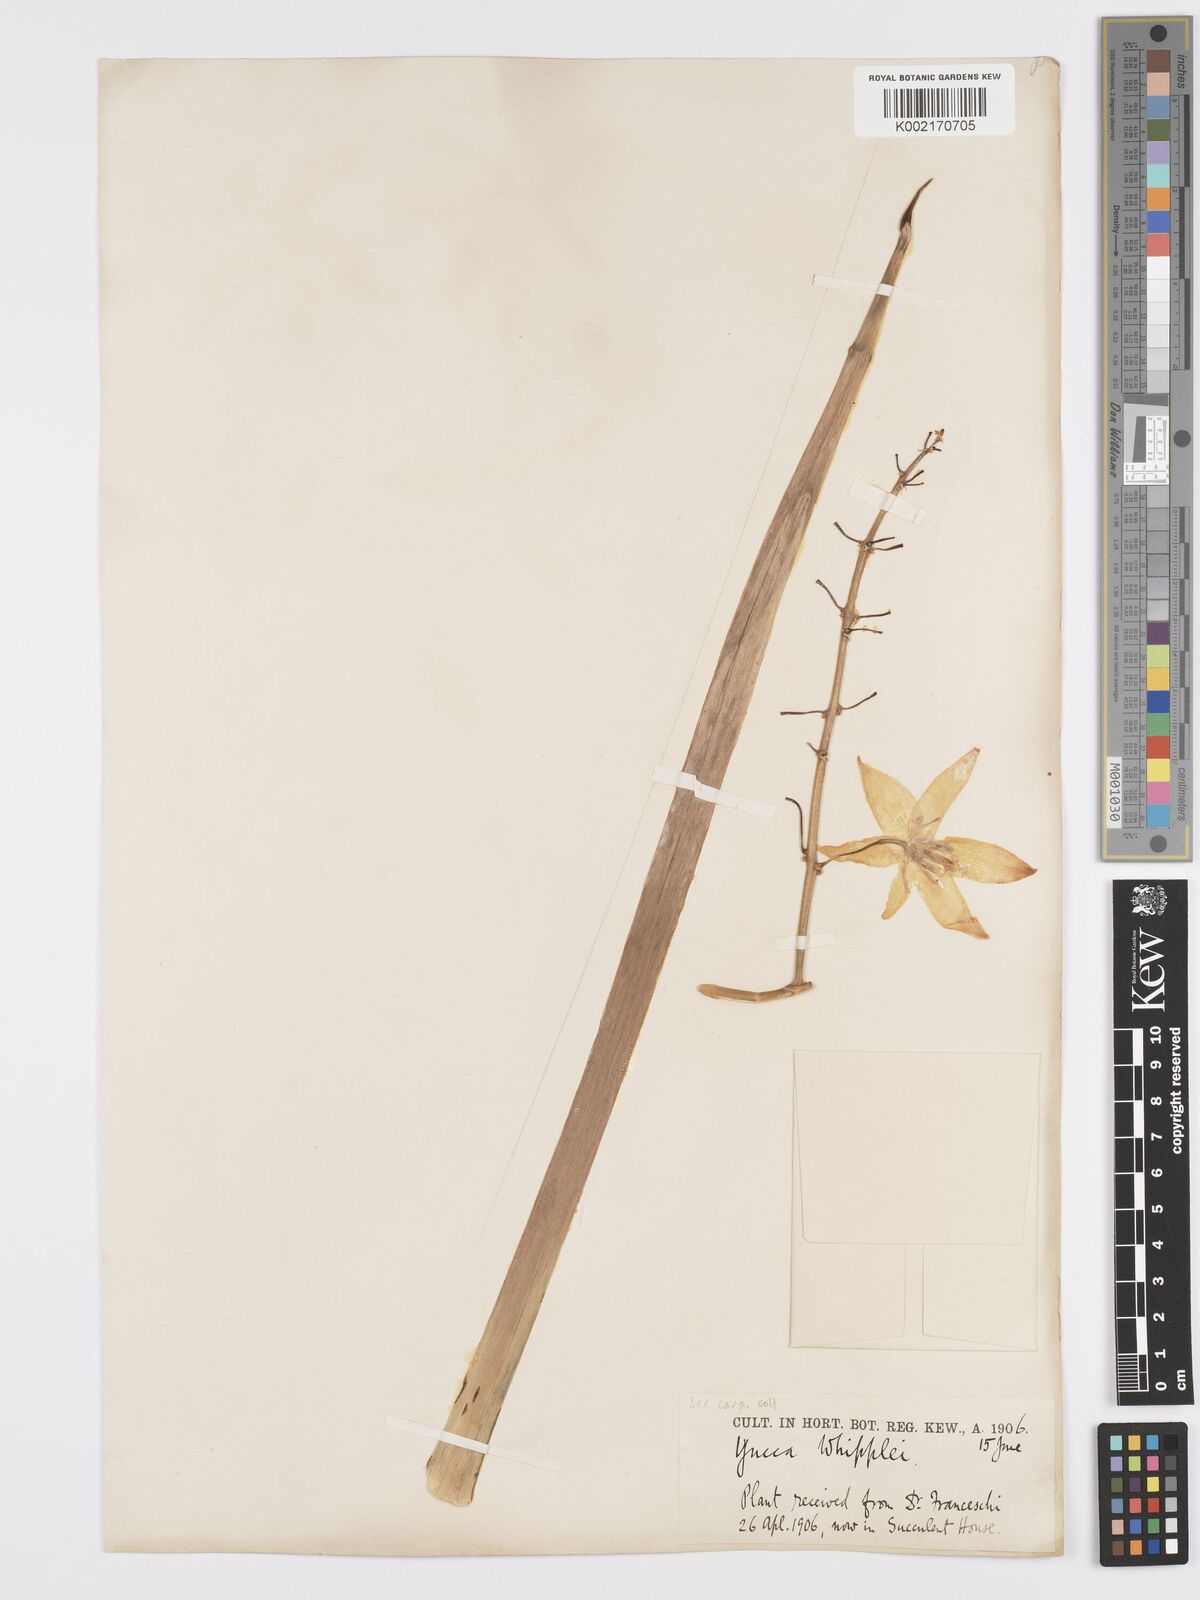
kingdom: Plantae
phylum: Tracheophyta
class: Liliopsida
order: Asparagales
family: Asparagaceae
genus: Hesperoyucca
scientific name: Hesperoyucca whipplei
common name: Our lord's-candle
